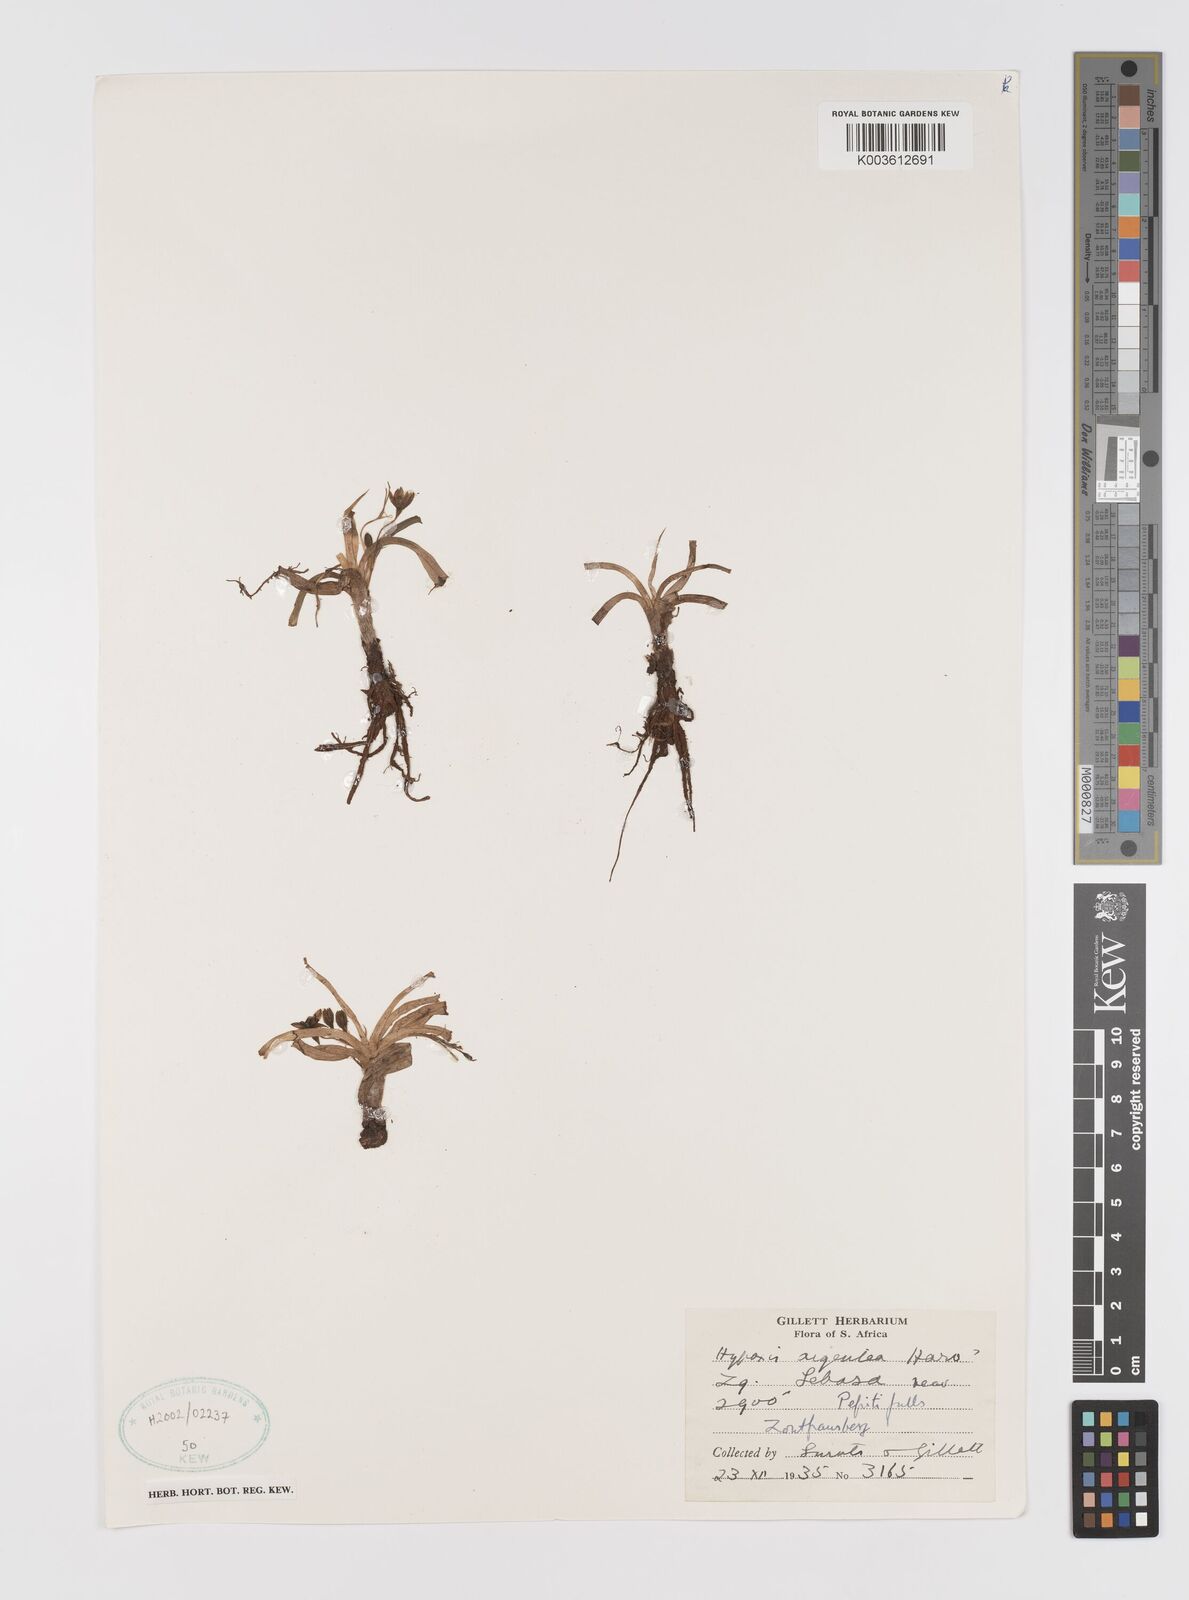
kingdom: Plantae
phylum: Tracheophyta
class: Liliopsida
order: Asparagales
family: Hypoxidaceae
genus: Hypoxis
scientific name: Hypoxis argentea
